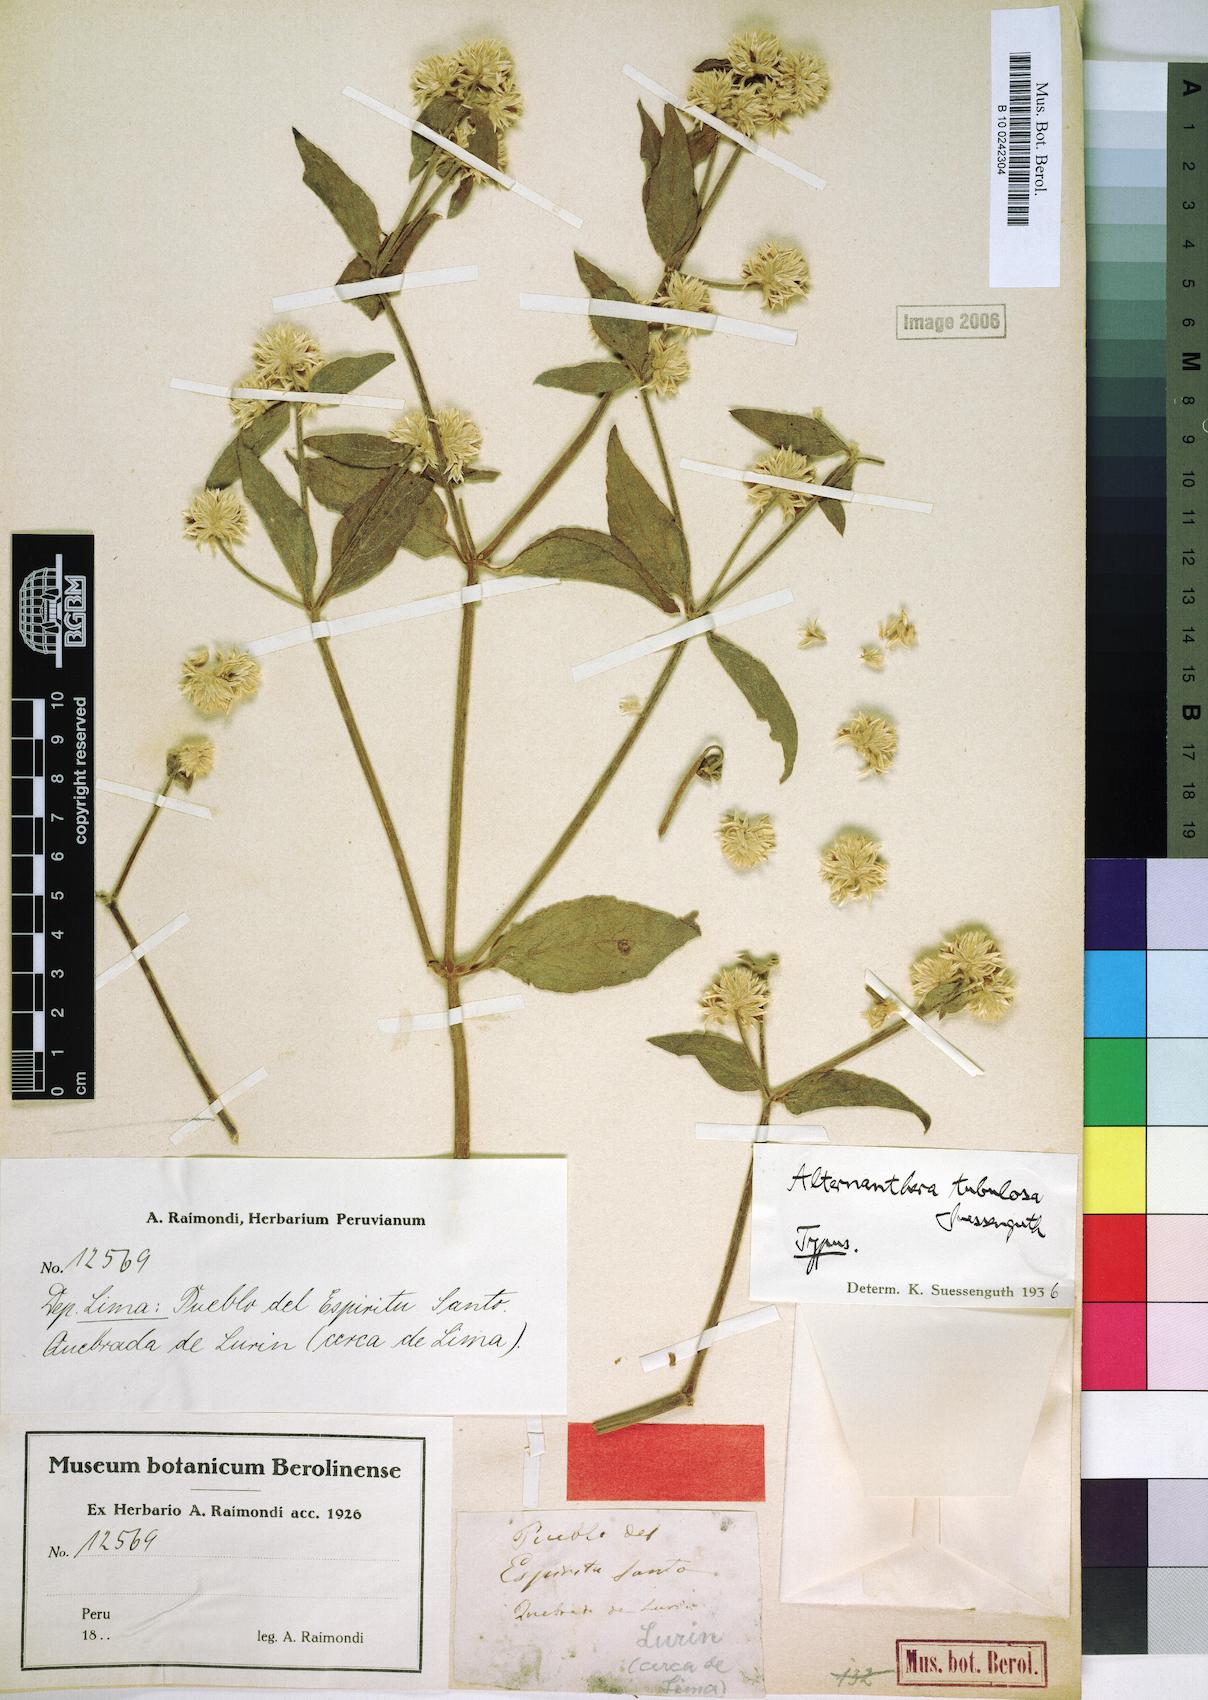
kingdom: Plantae
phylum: Tracheophyta
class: Magnoliopsida
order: Caryophyllales
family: Amaranthaceae
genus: Alternanthera
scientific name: Alternanthera tubulosa
